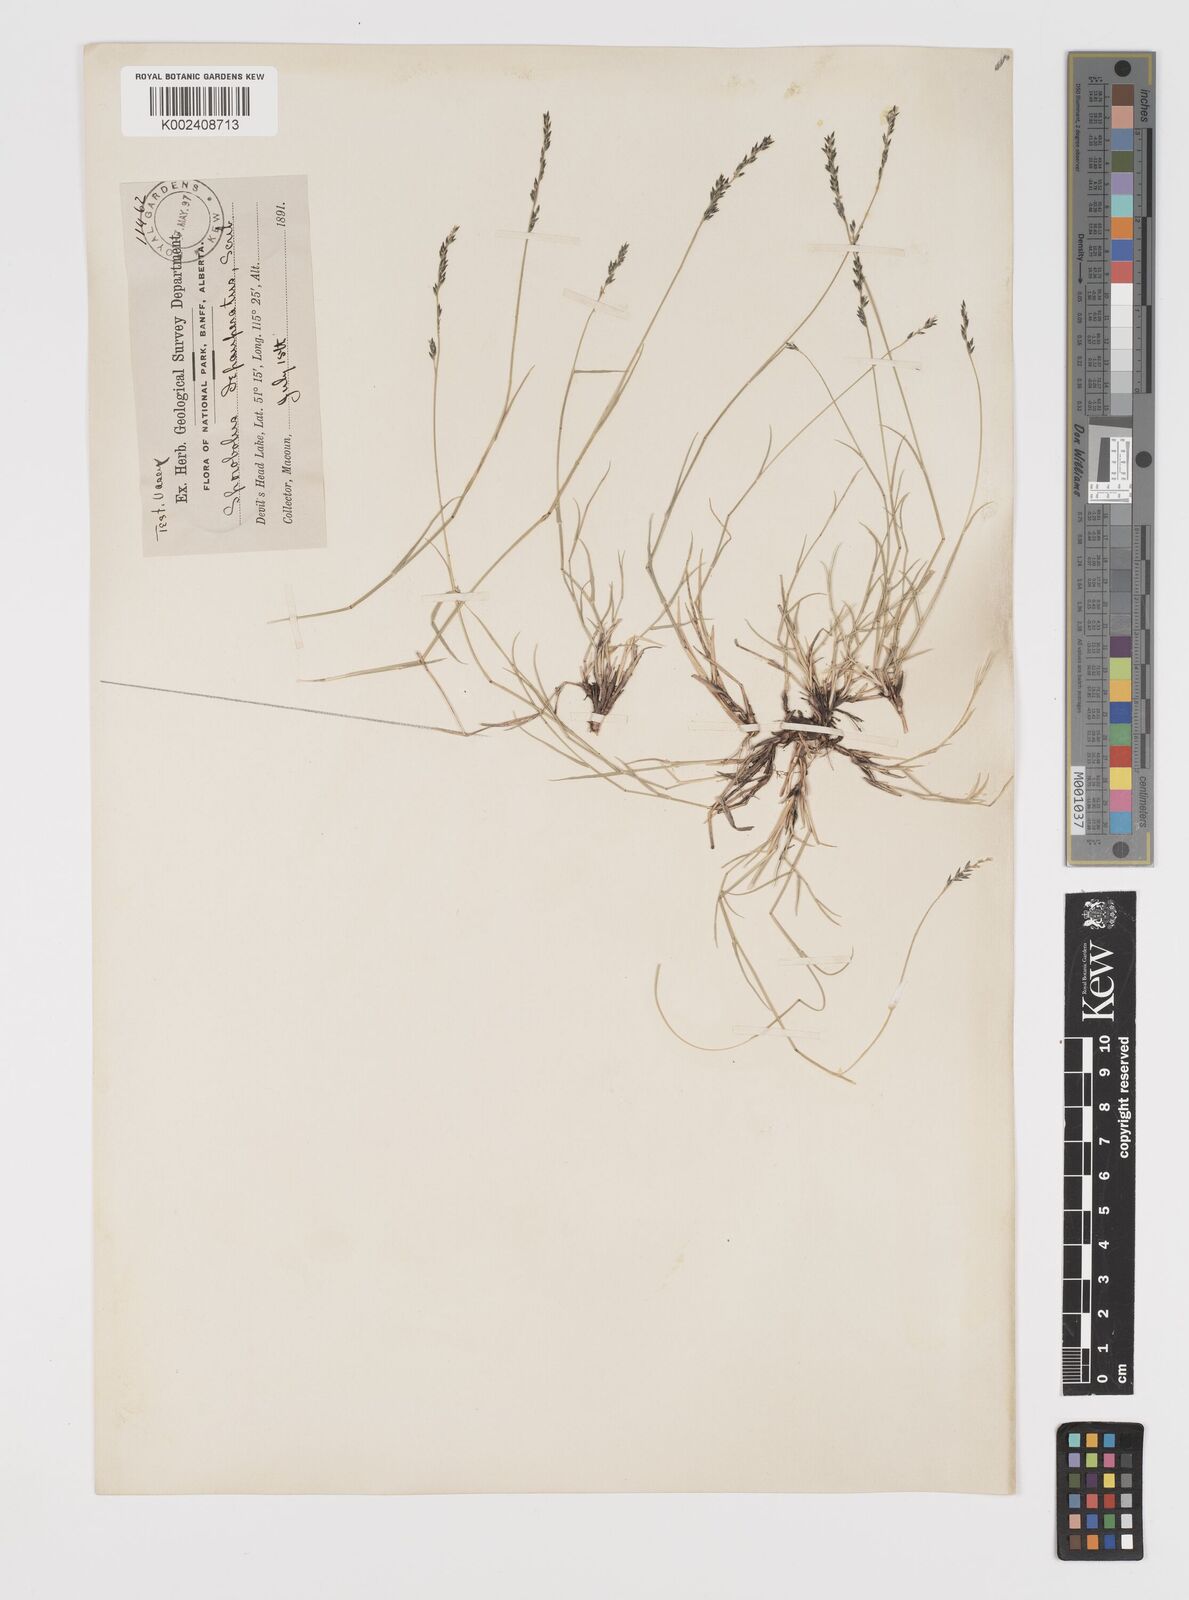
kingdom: Plantae
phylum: Tracheophyta
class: Liliopsida
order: Poales
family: Poaceae
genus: Muhlenbergia
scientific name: Muhlenbergia richardsonis
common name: Mat muhly
